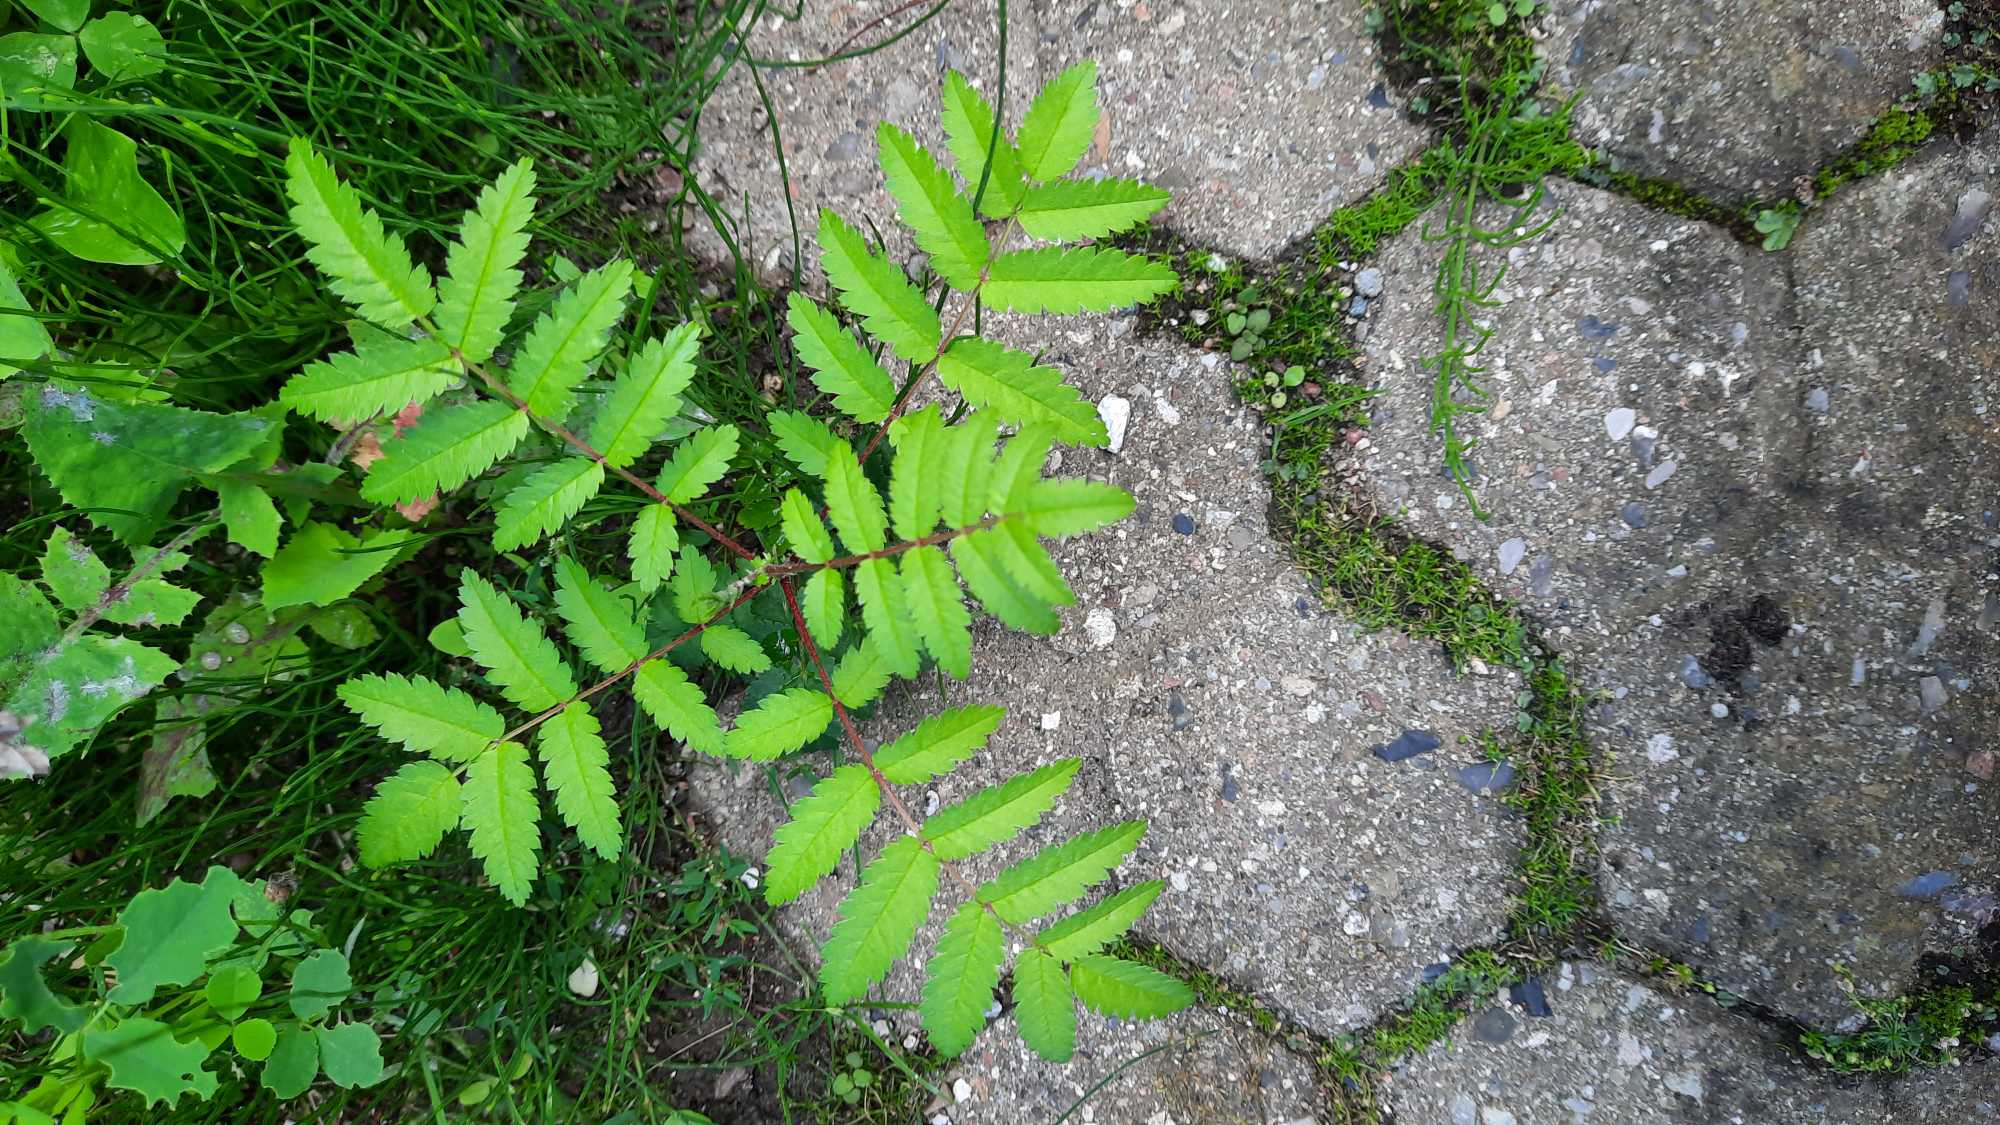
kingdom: Plantae
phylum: Tracheophyta
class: Magnoliopsida
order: Rosales
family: Rosaceae
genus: Sorbus
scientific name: Sorbus aucuparia
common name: Almindelig røn
